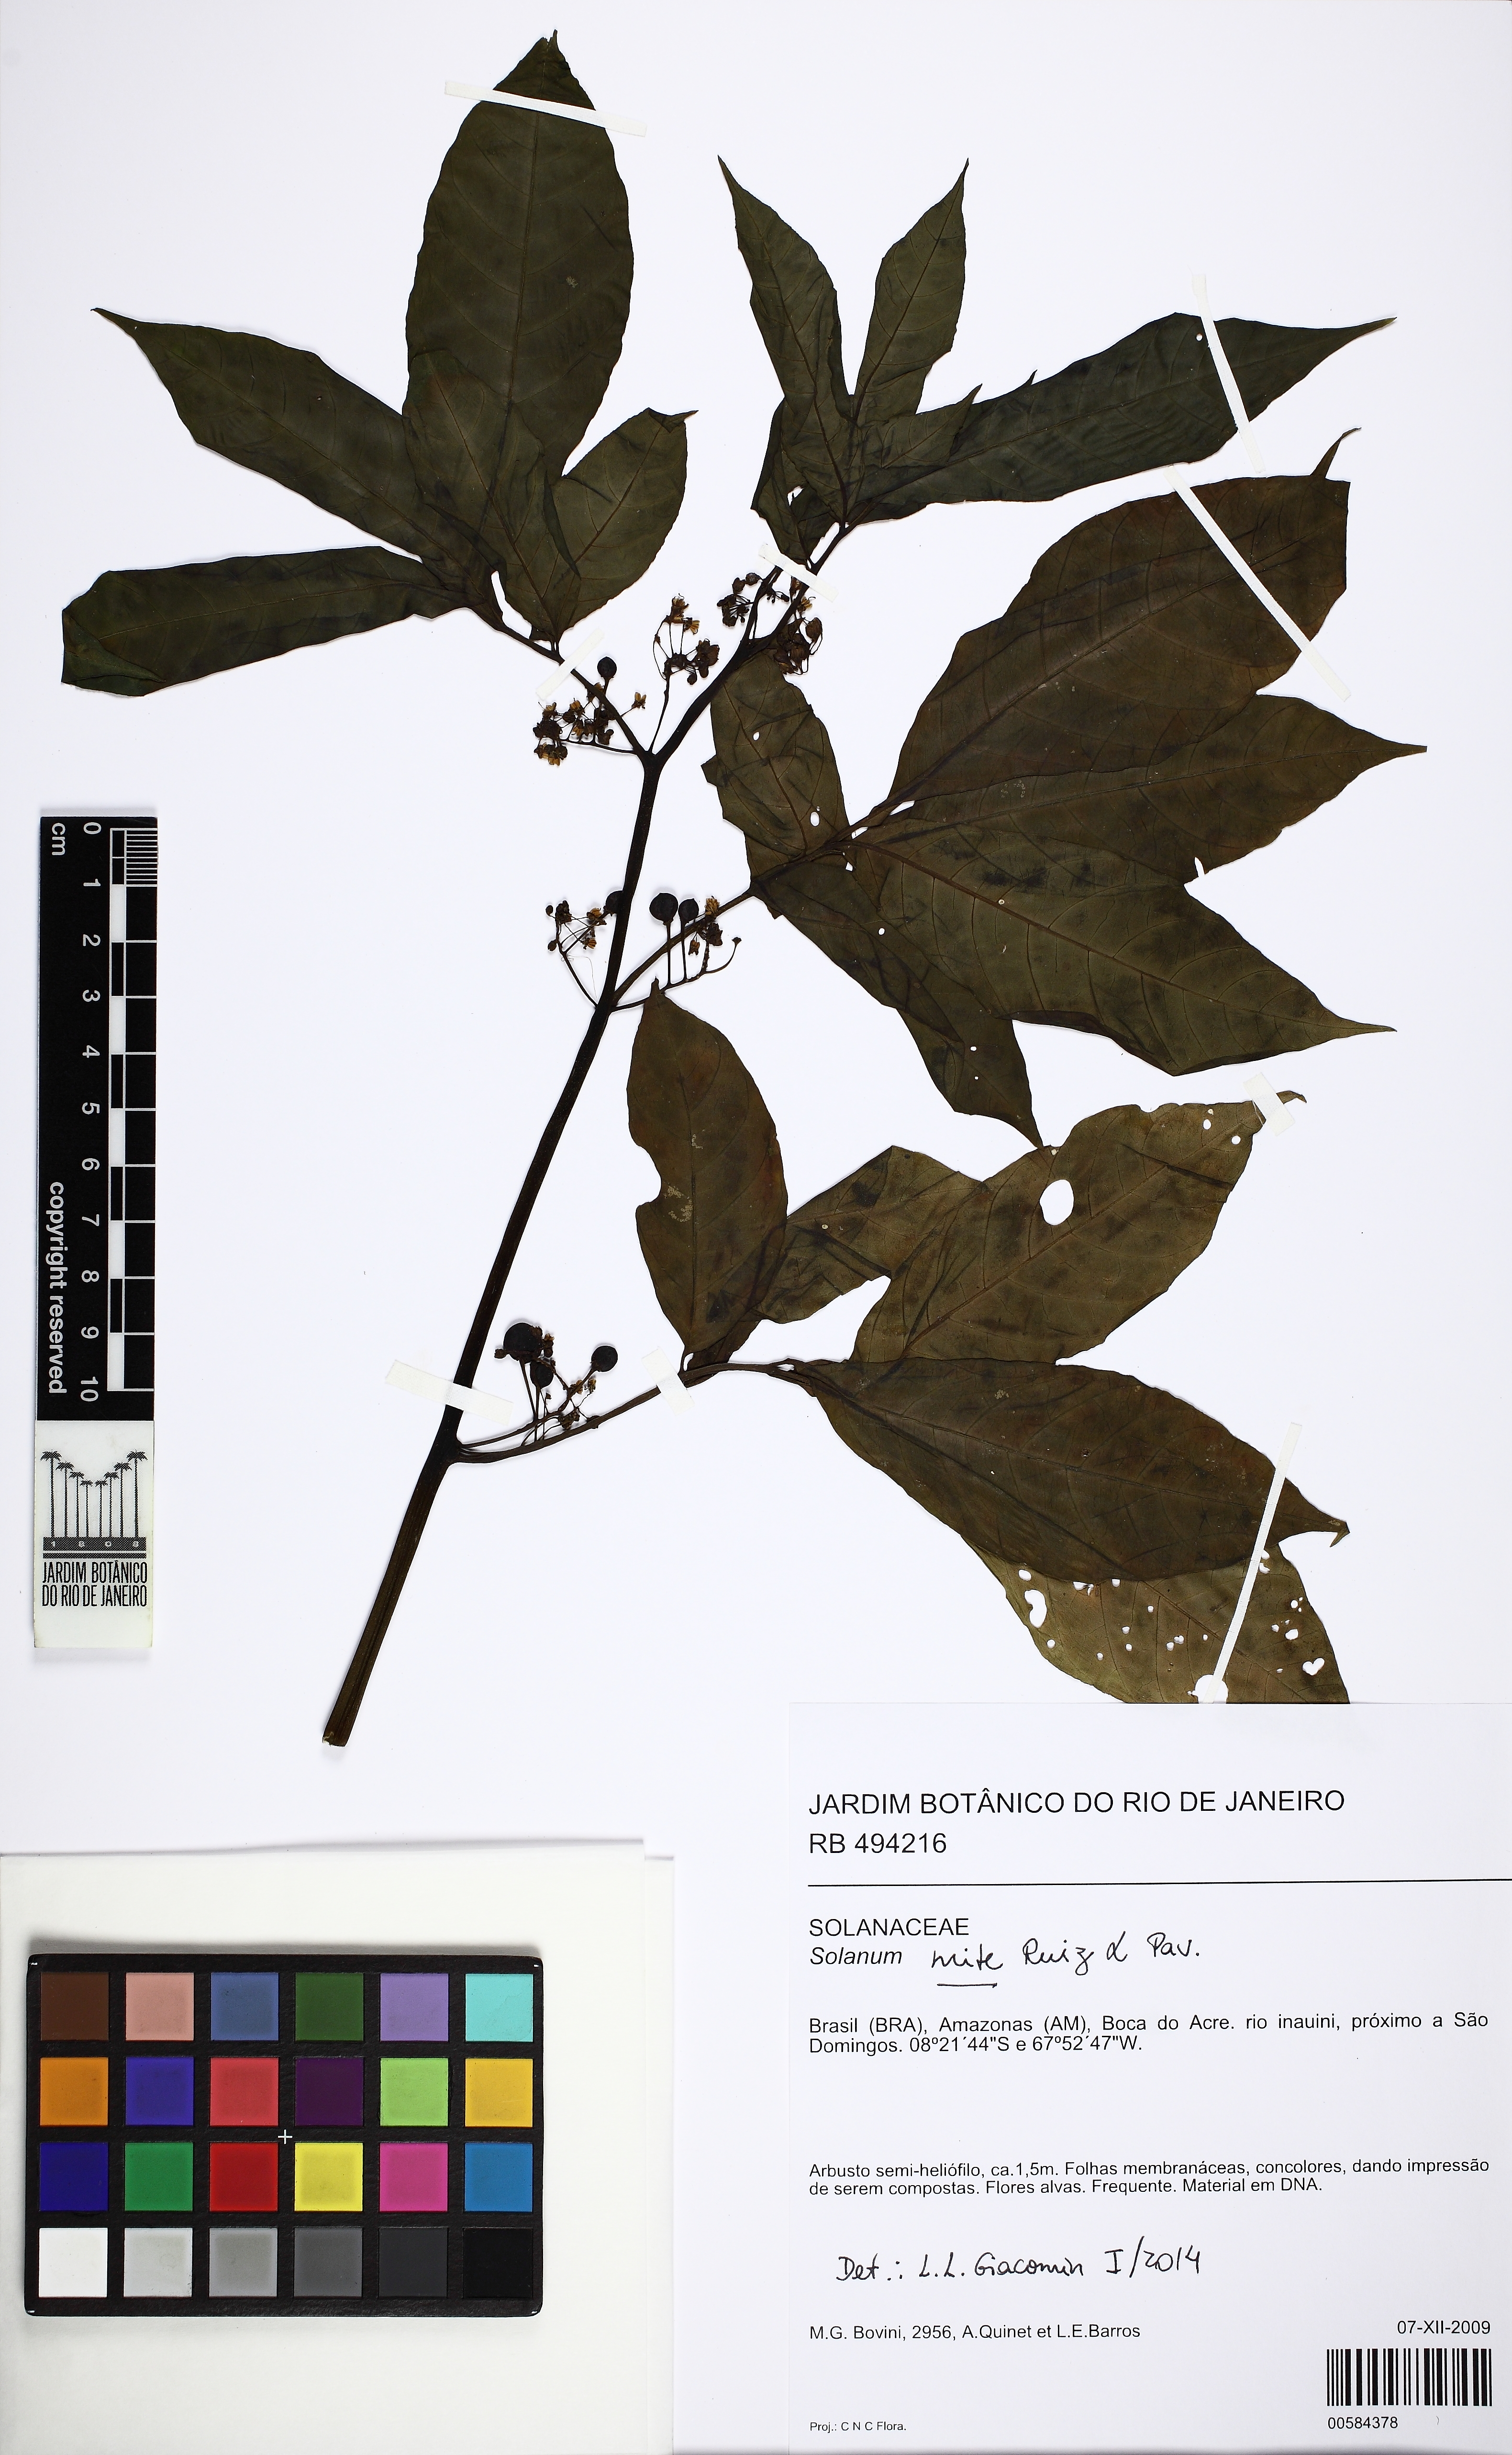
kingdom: Plantae
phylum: Tracheophyta
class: Magnoliopsida
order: Solanales
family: Solanaceae
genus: Solanum
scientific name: Solanum mite
